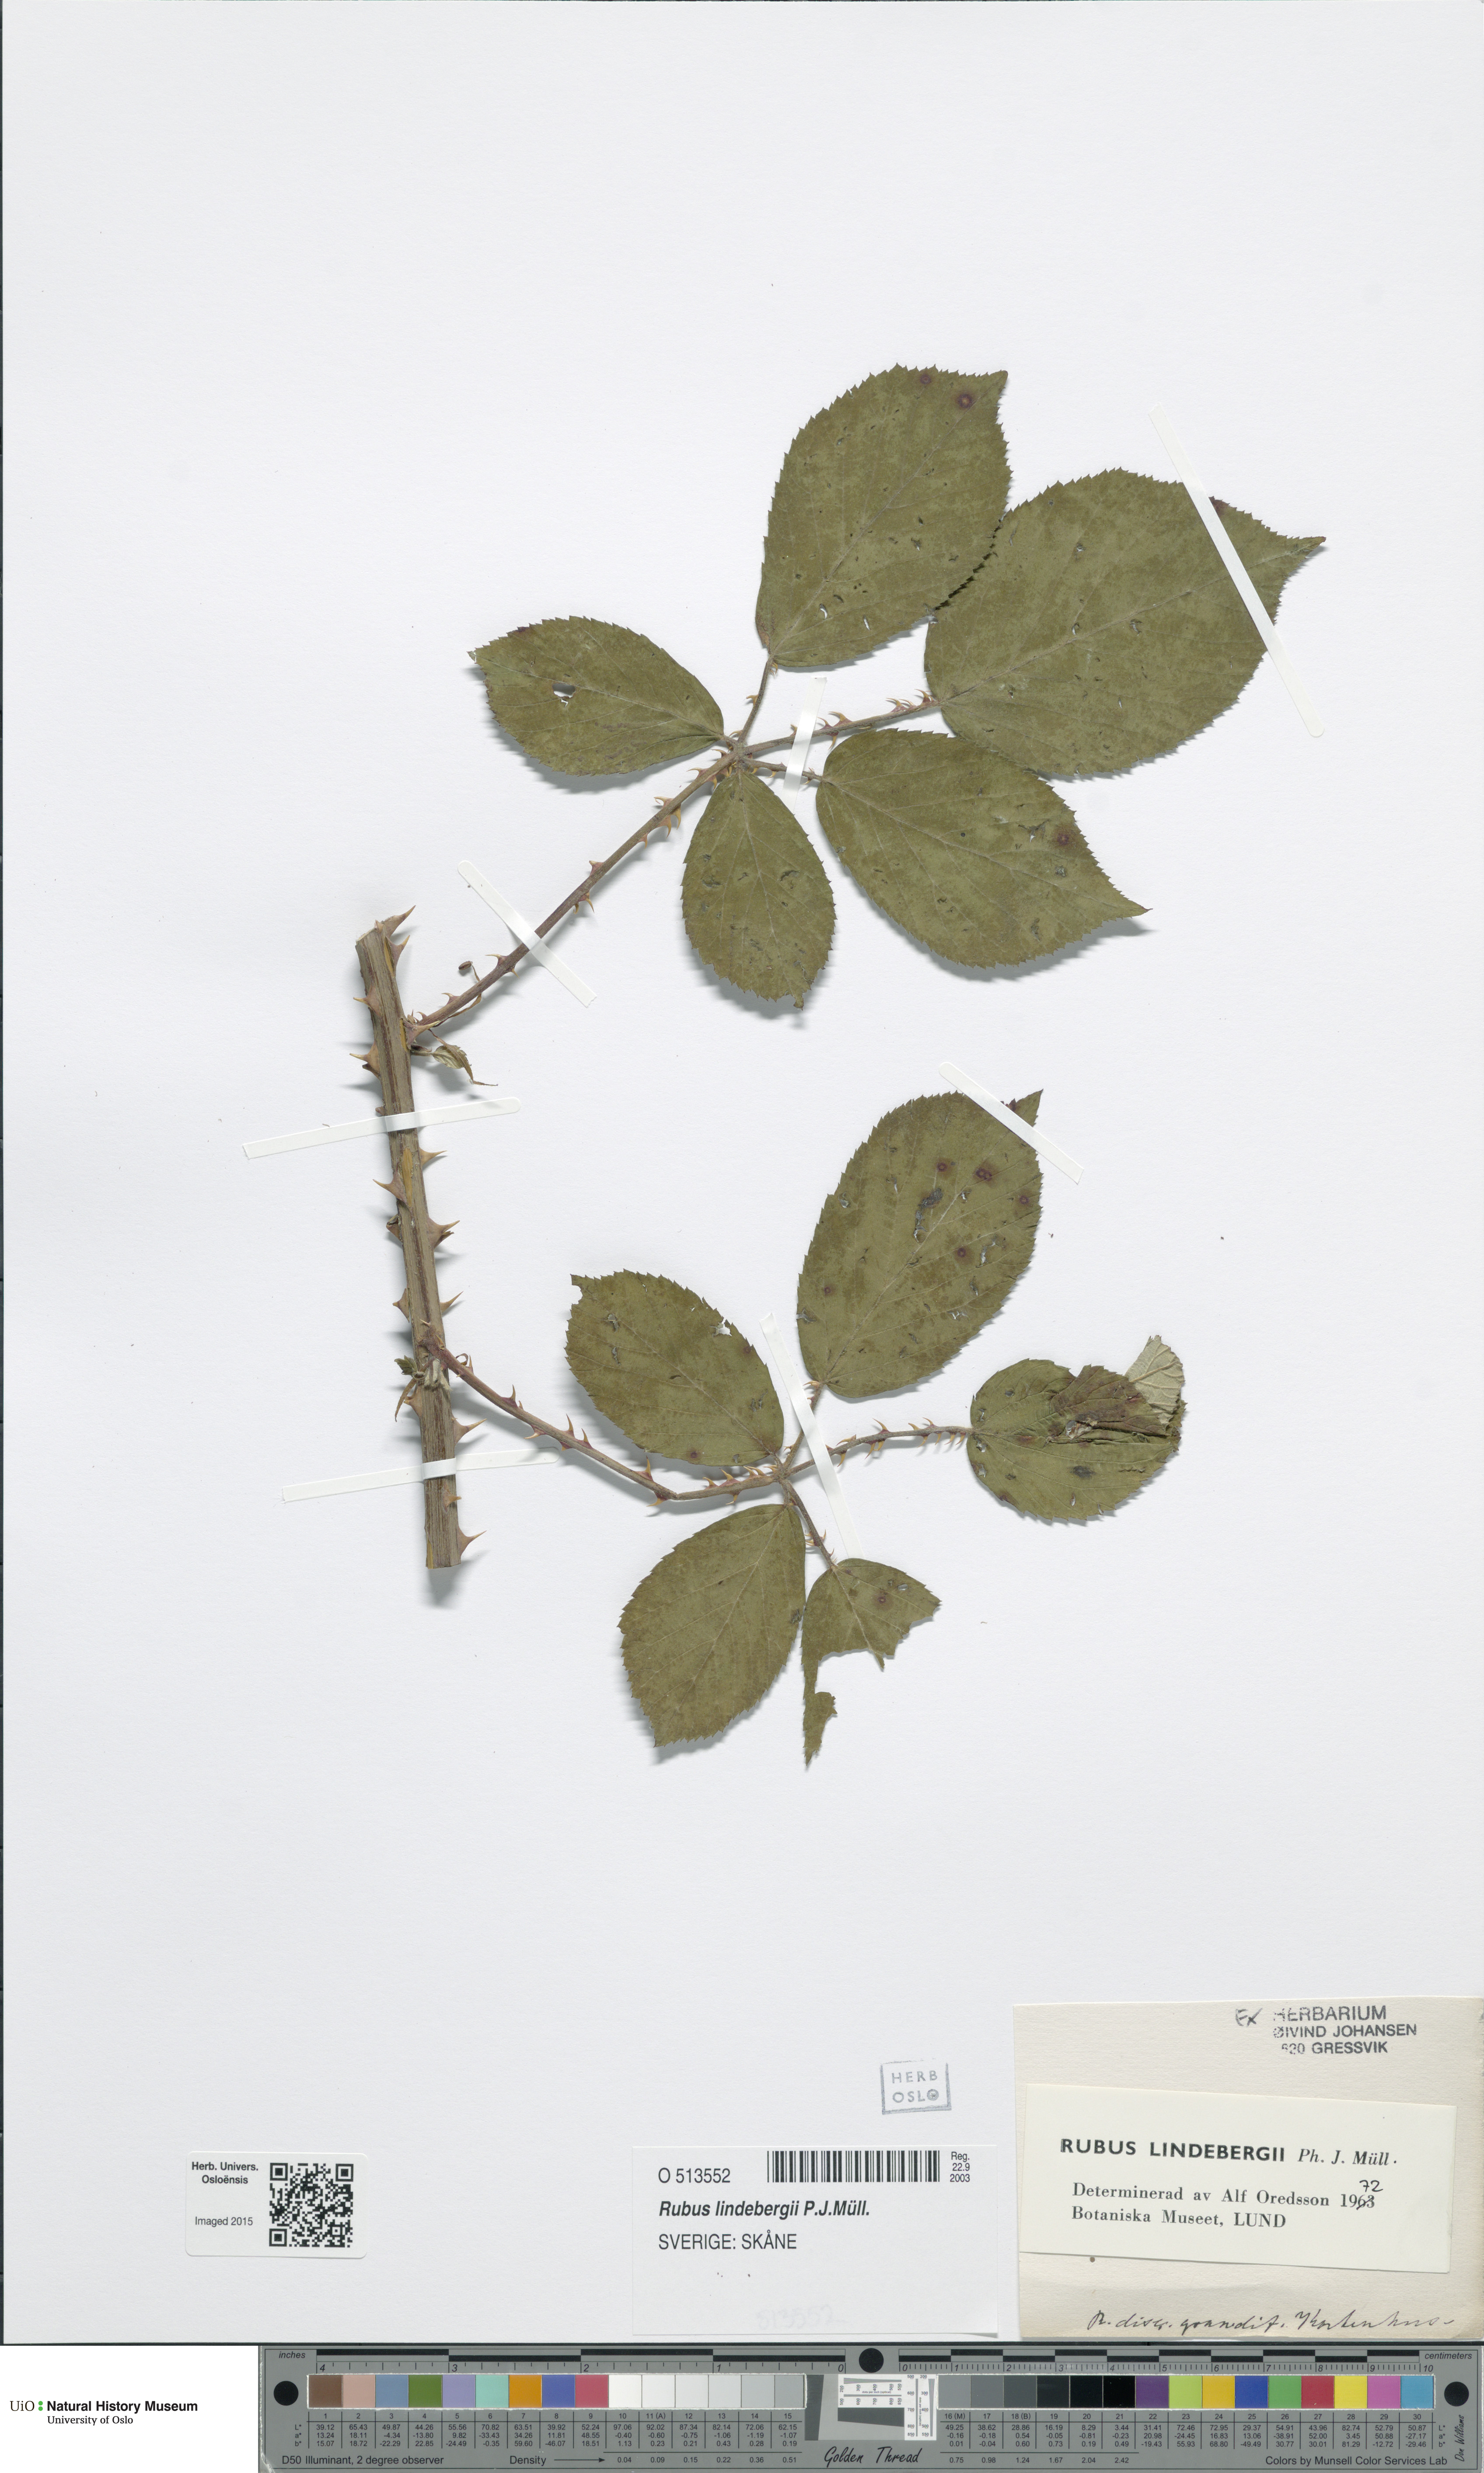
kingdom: Plantae
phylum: Tracheophyta
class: Magnoliopsida
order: Rosales
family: Rosaceae
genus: Rubus
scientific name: Rubus lindebergii
